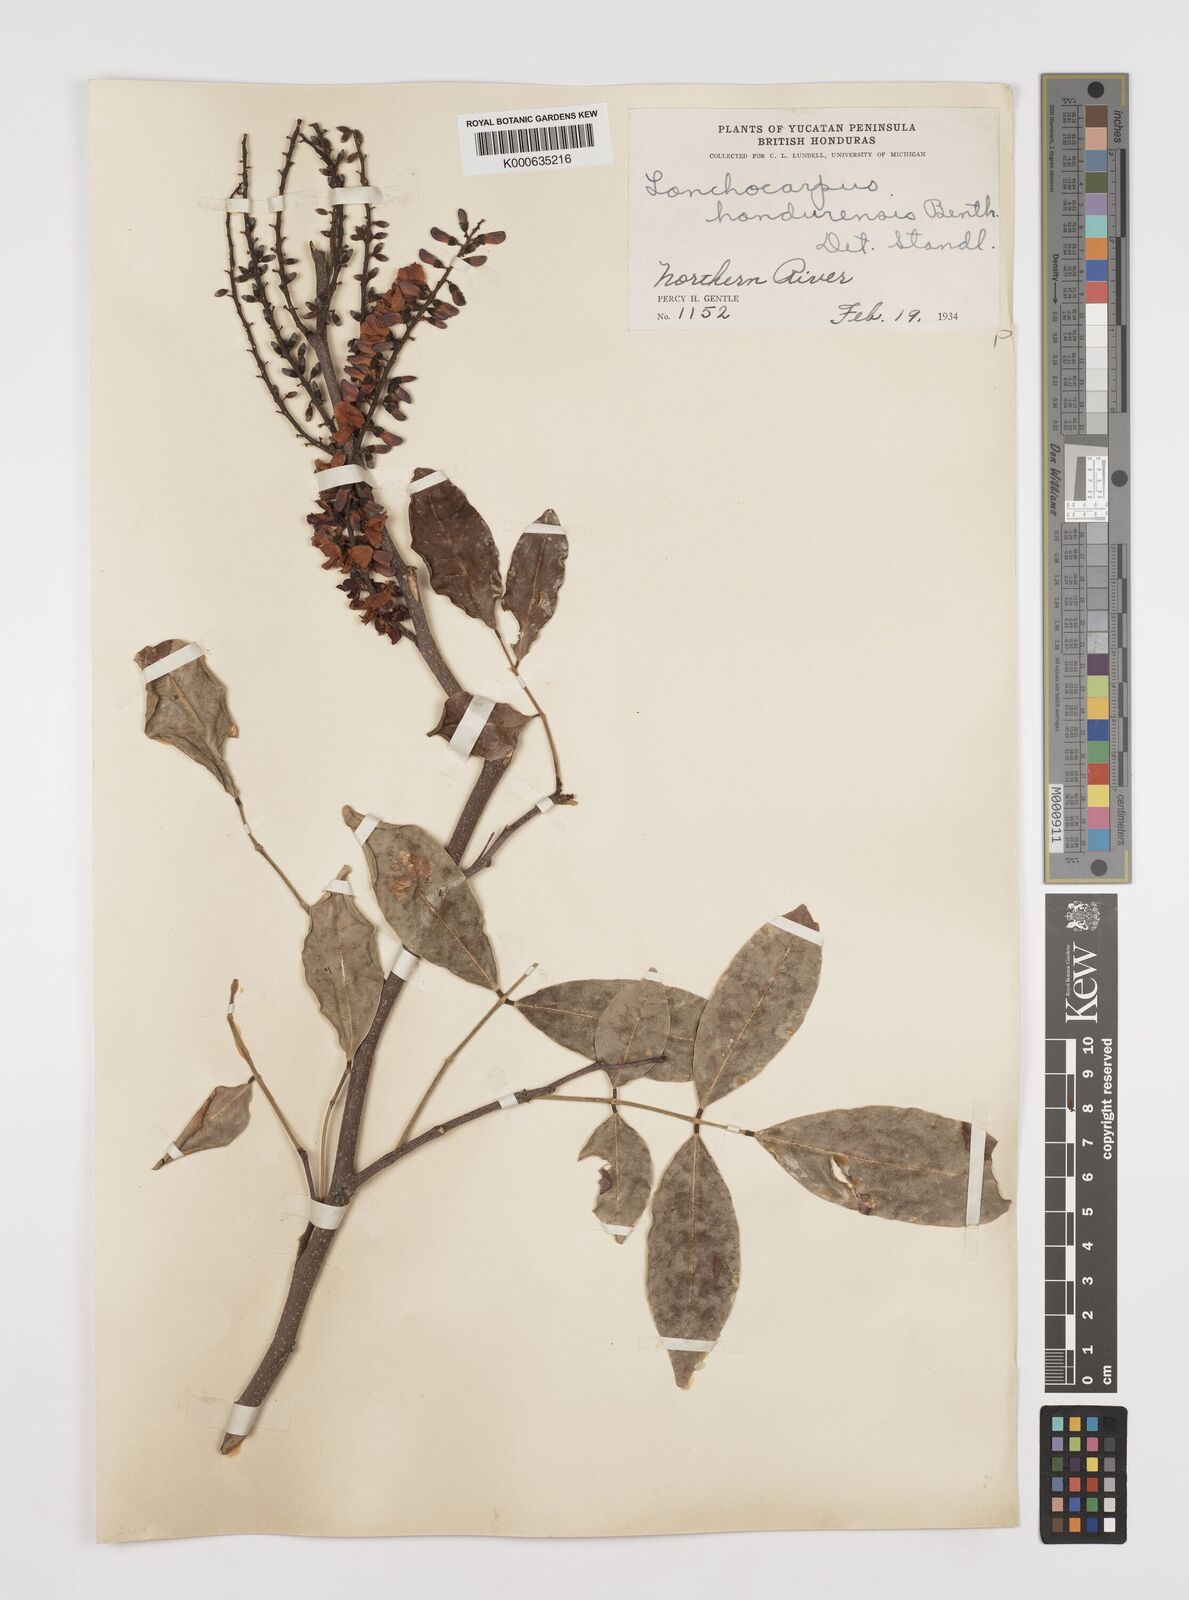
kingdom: Plantae
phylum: Tracheophyta
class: Magnoliopsida
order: Fabales
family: Fabaceae
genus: Lonchocarpus
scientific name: Lonchocarpus hondurensis
